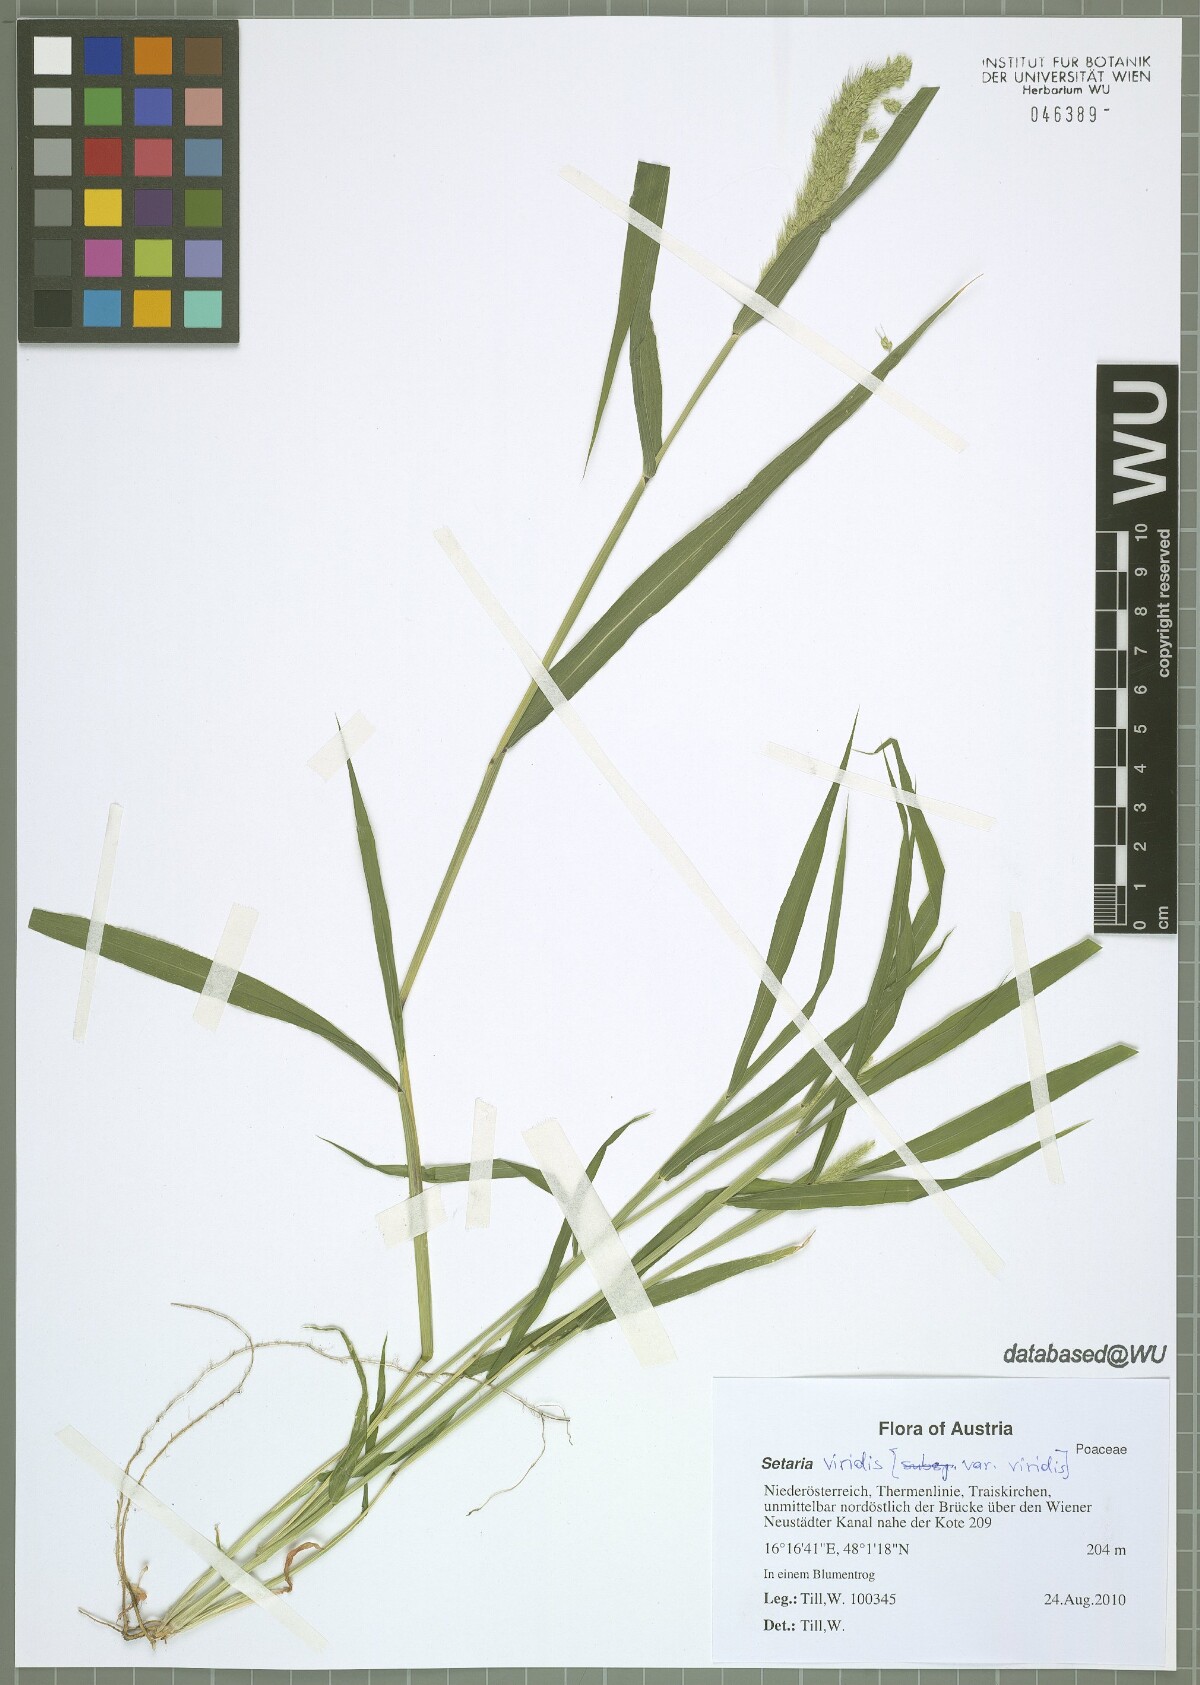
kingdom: Plantae
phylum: Tracheophyta
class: Liliopsida
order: Poales
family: Poaceae
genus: Setaria
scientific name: Setaria viridis
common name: Green bristlegrass
